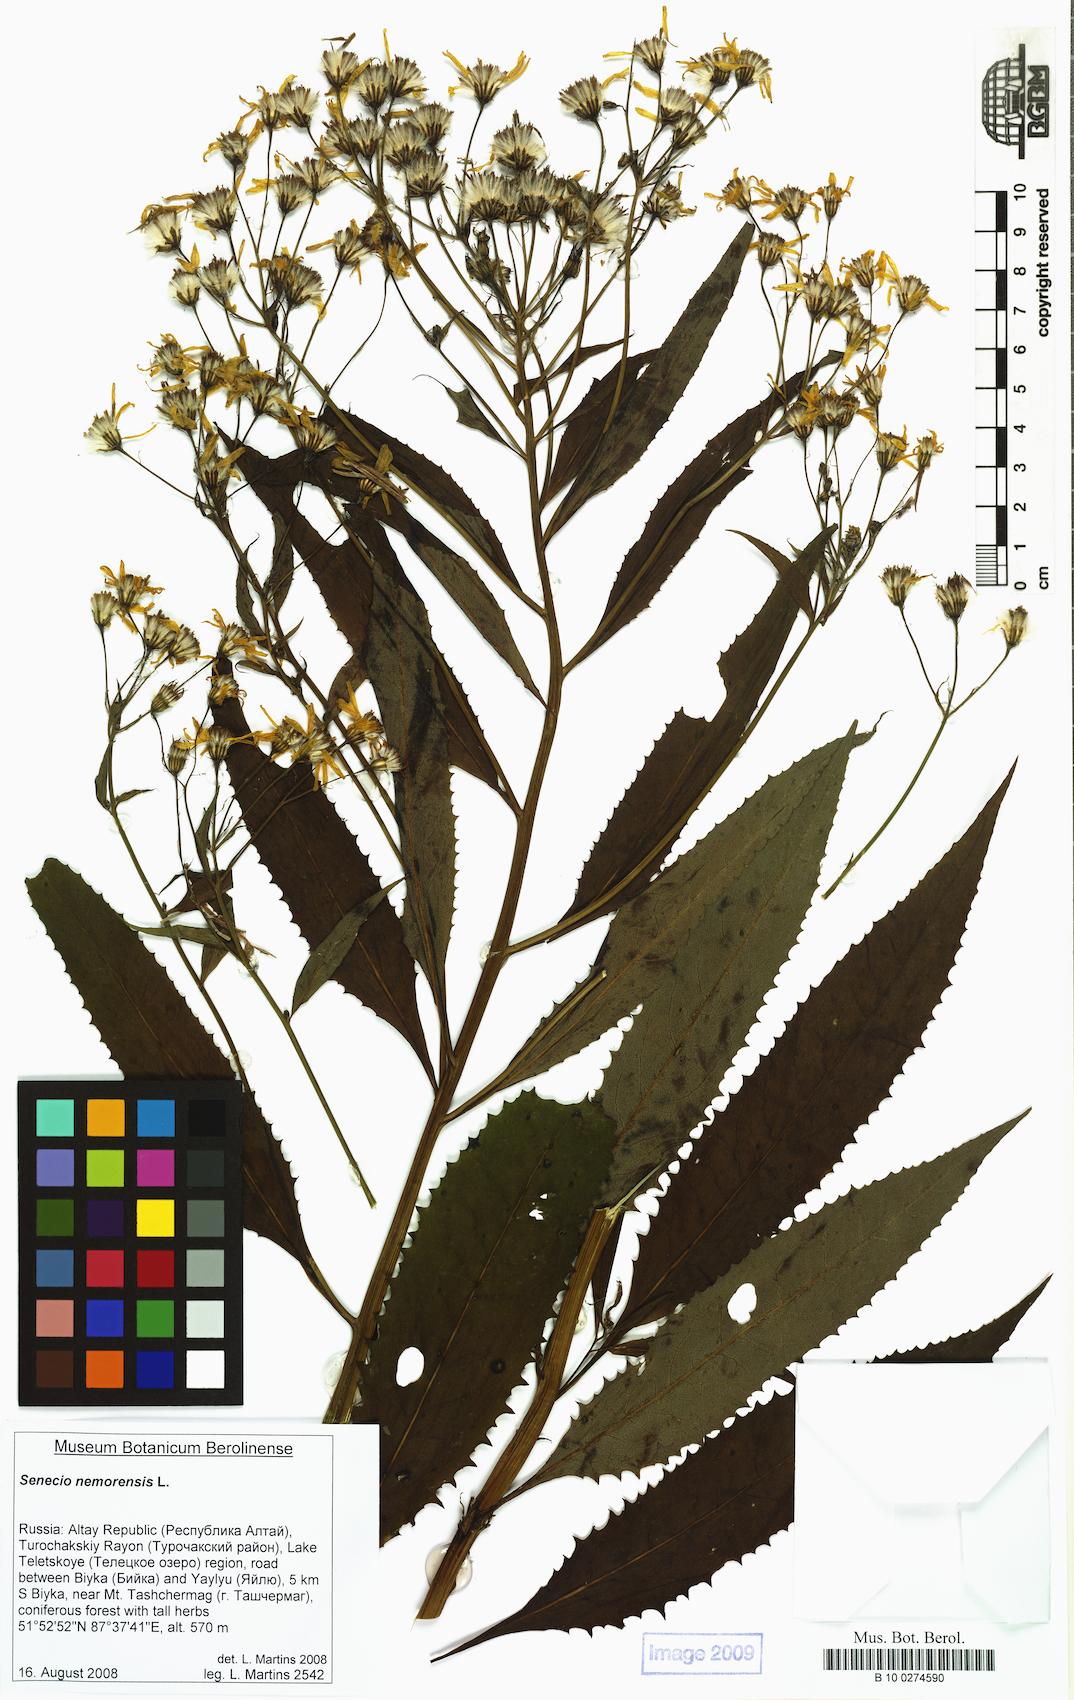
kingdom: Plantae
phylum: Tracheophyta
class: Magnoliopsida
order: Asterales
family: Asteraceae
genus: Senecio
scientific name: Senecio nemorensis
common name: Alpine ragwort
